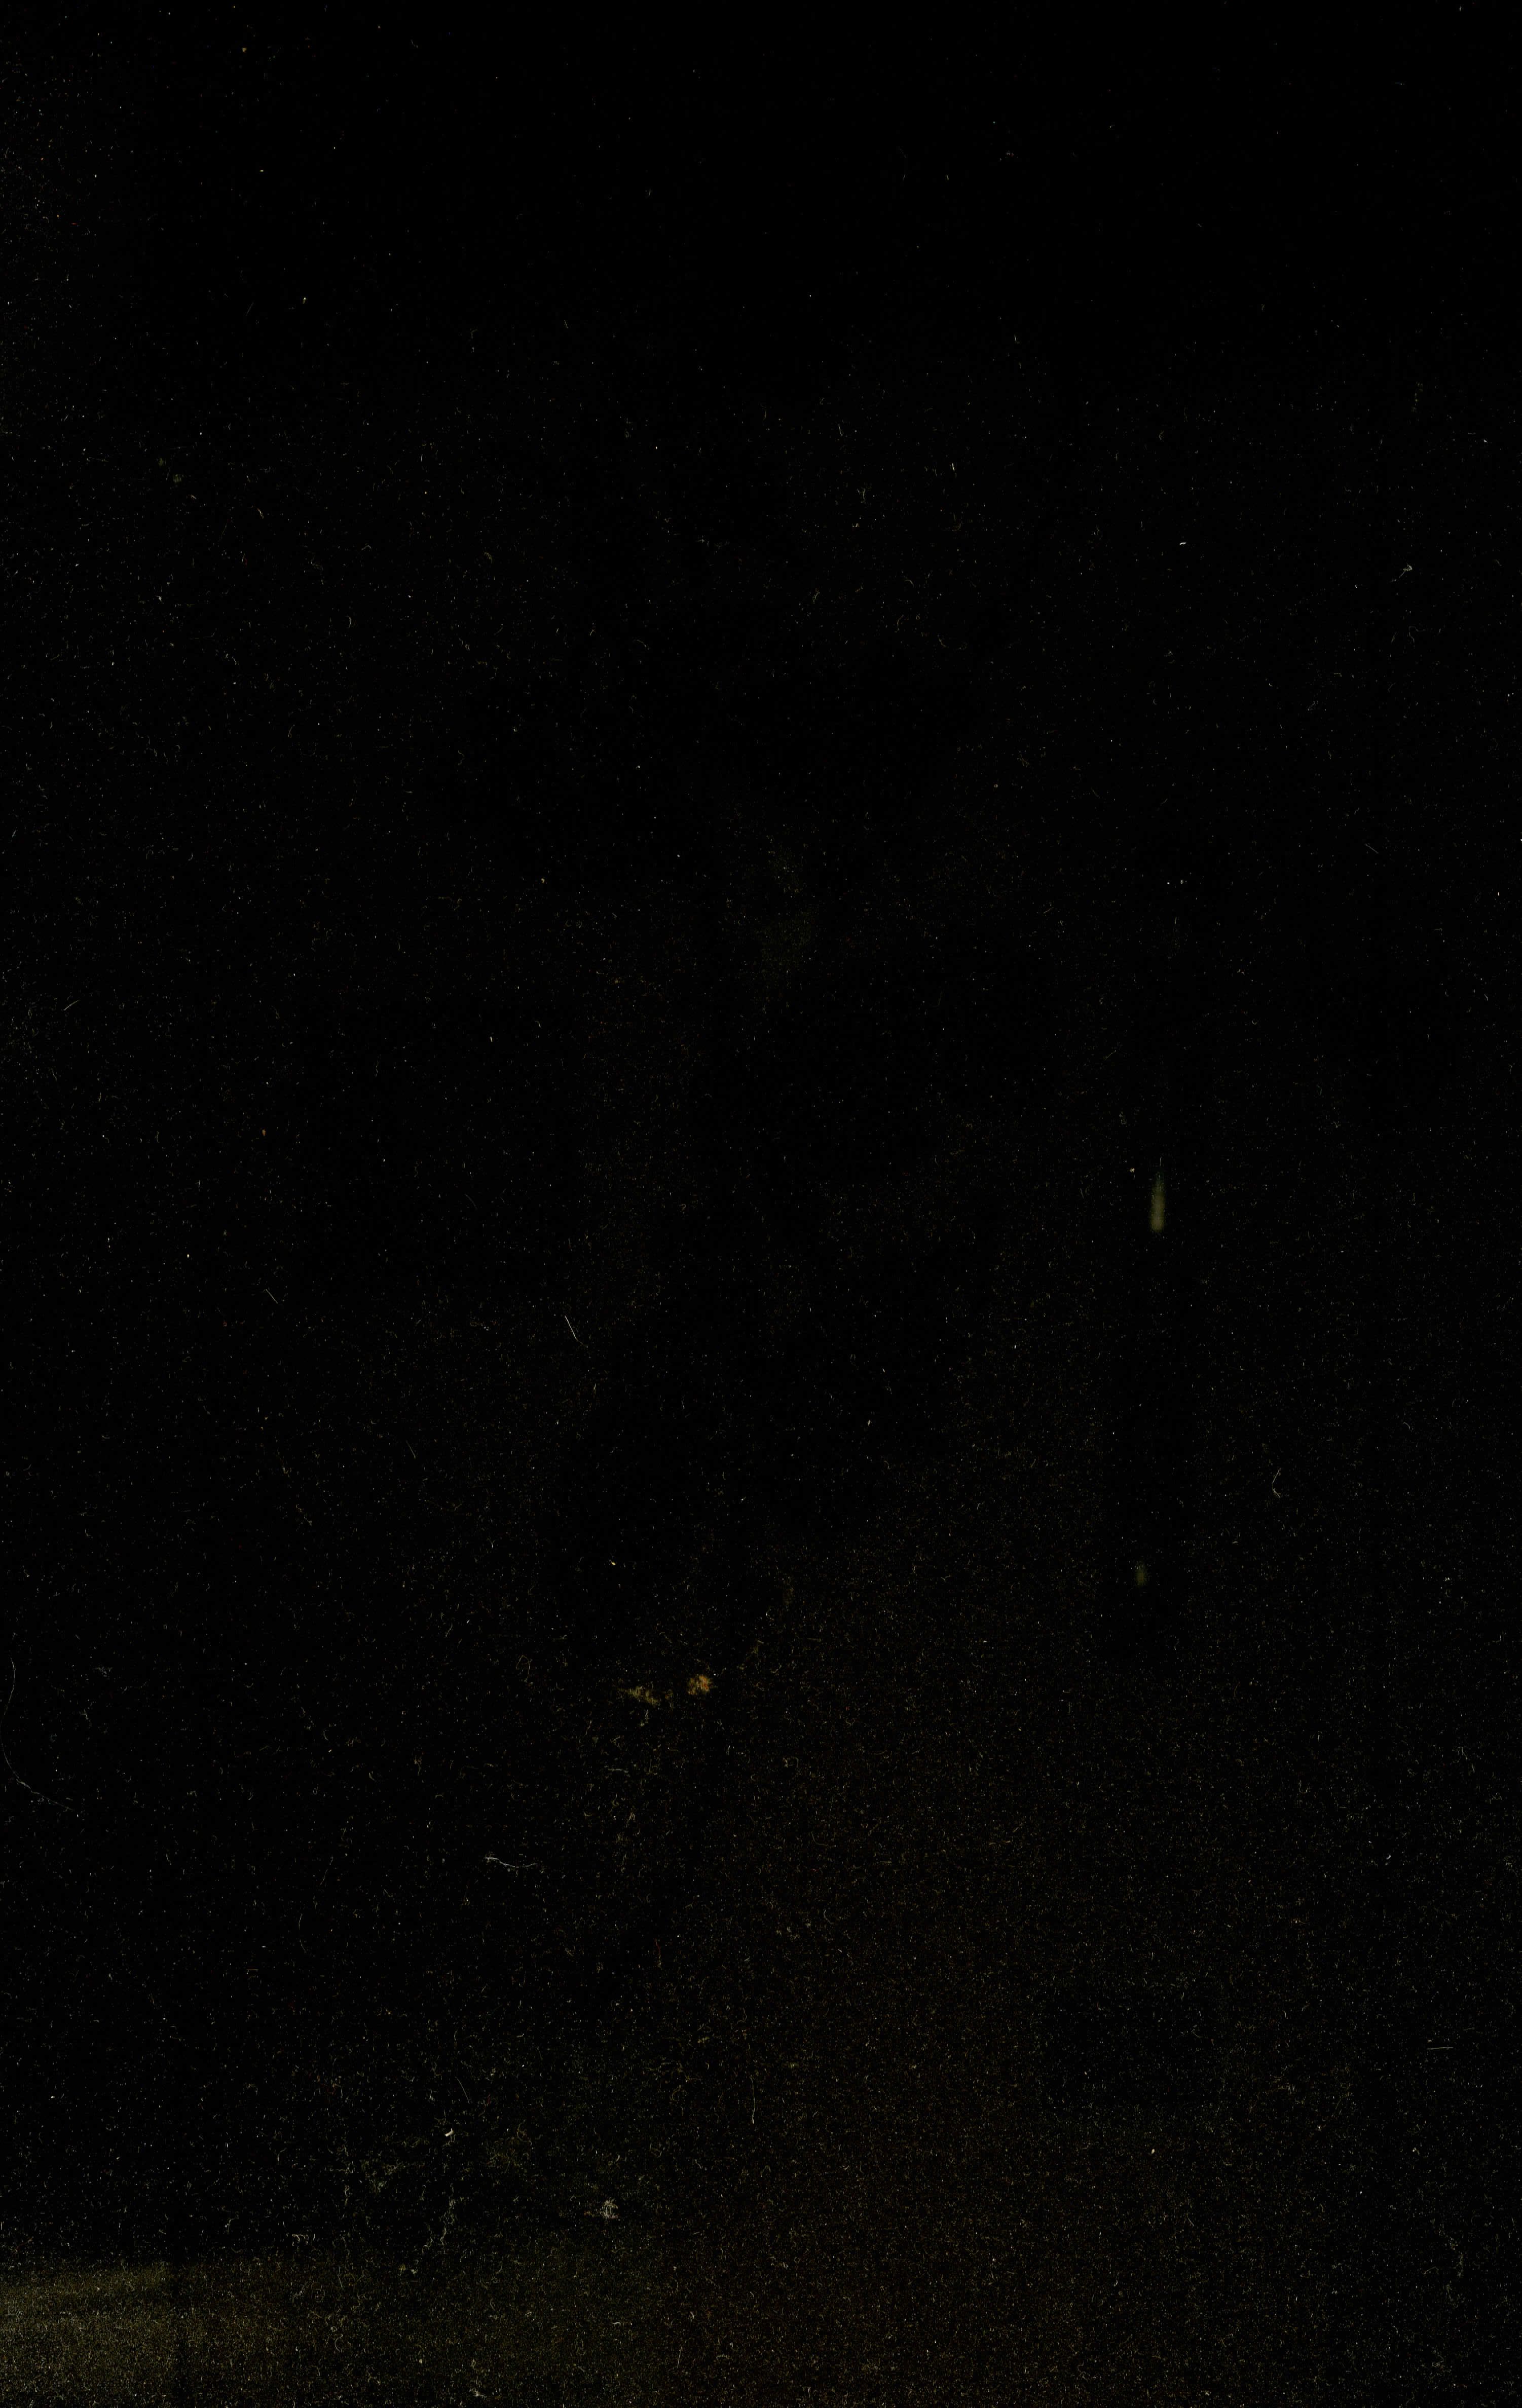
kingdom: Plantae
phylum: Tracheophyta
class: Magnoliopsida
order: Malvales
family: Malvaceae
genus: Waltheria
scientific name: Waltheria indica
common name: Leather-coat
